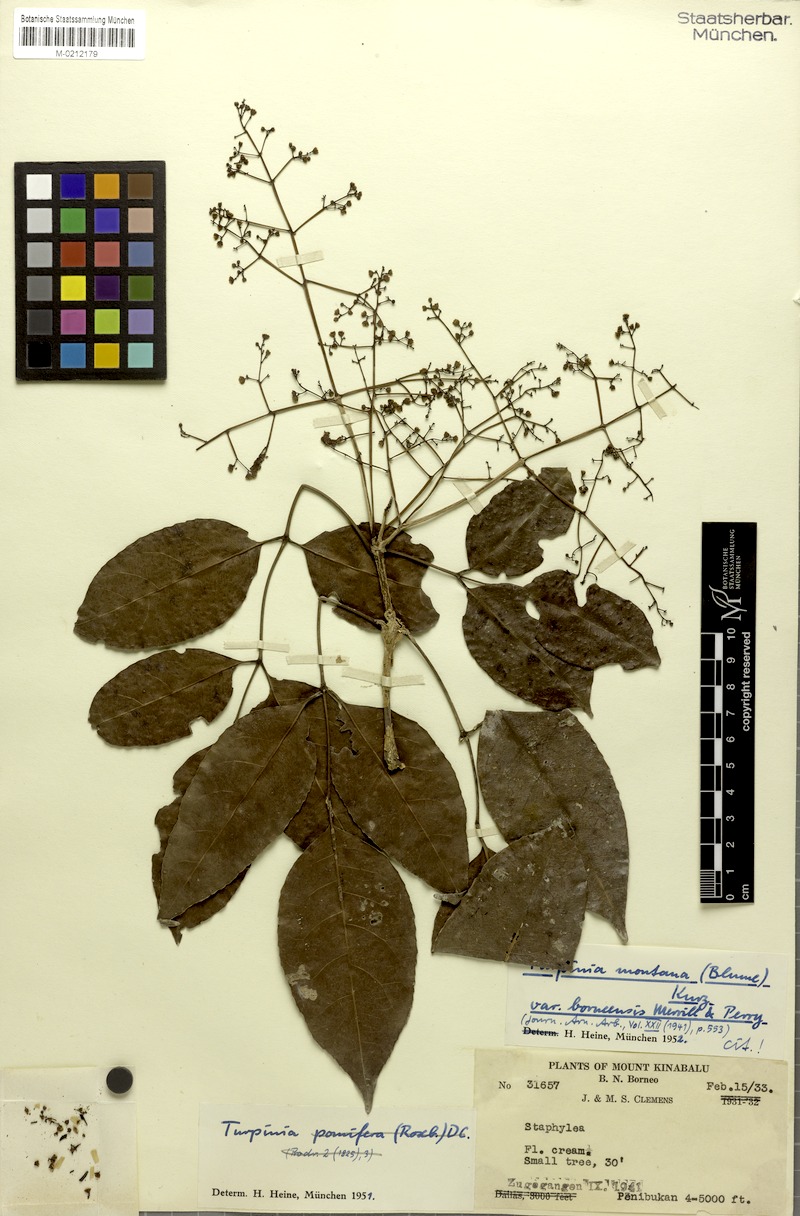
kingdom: Plantae
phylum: Tracheophyta
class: Magnoliopsida
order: Crossosomatales
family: Staphyleaceae
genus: Dalrympelea
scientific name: Dalrympelea borneensis
